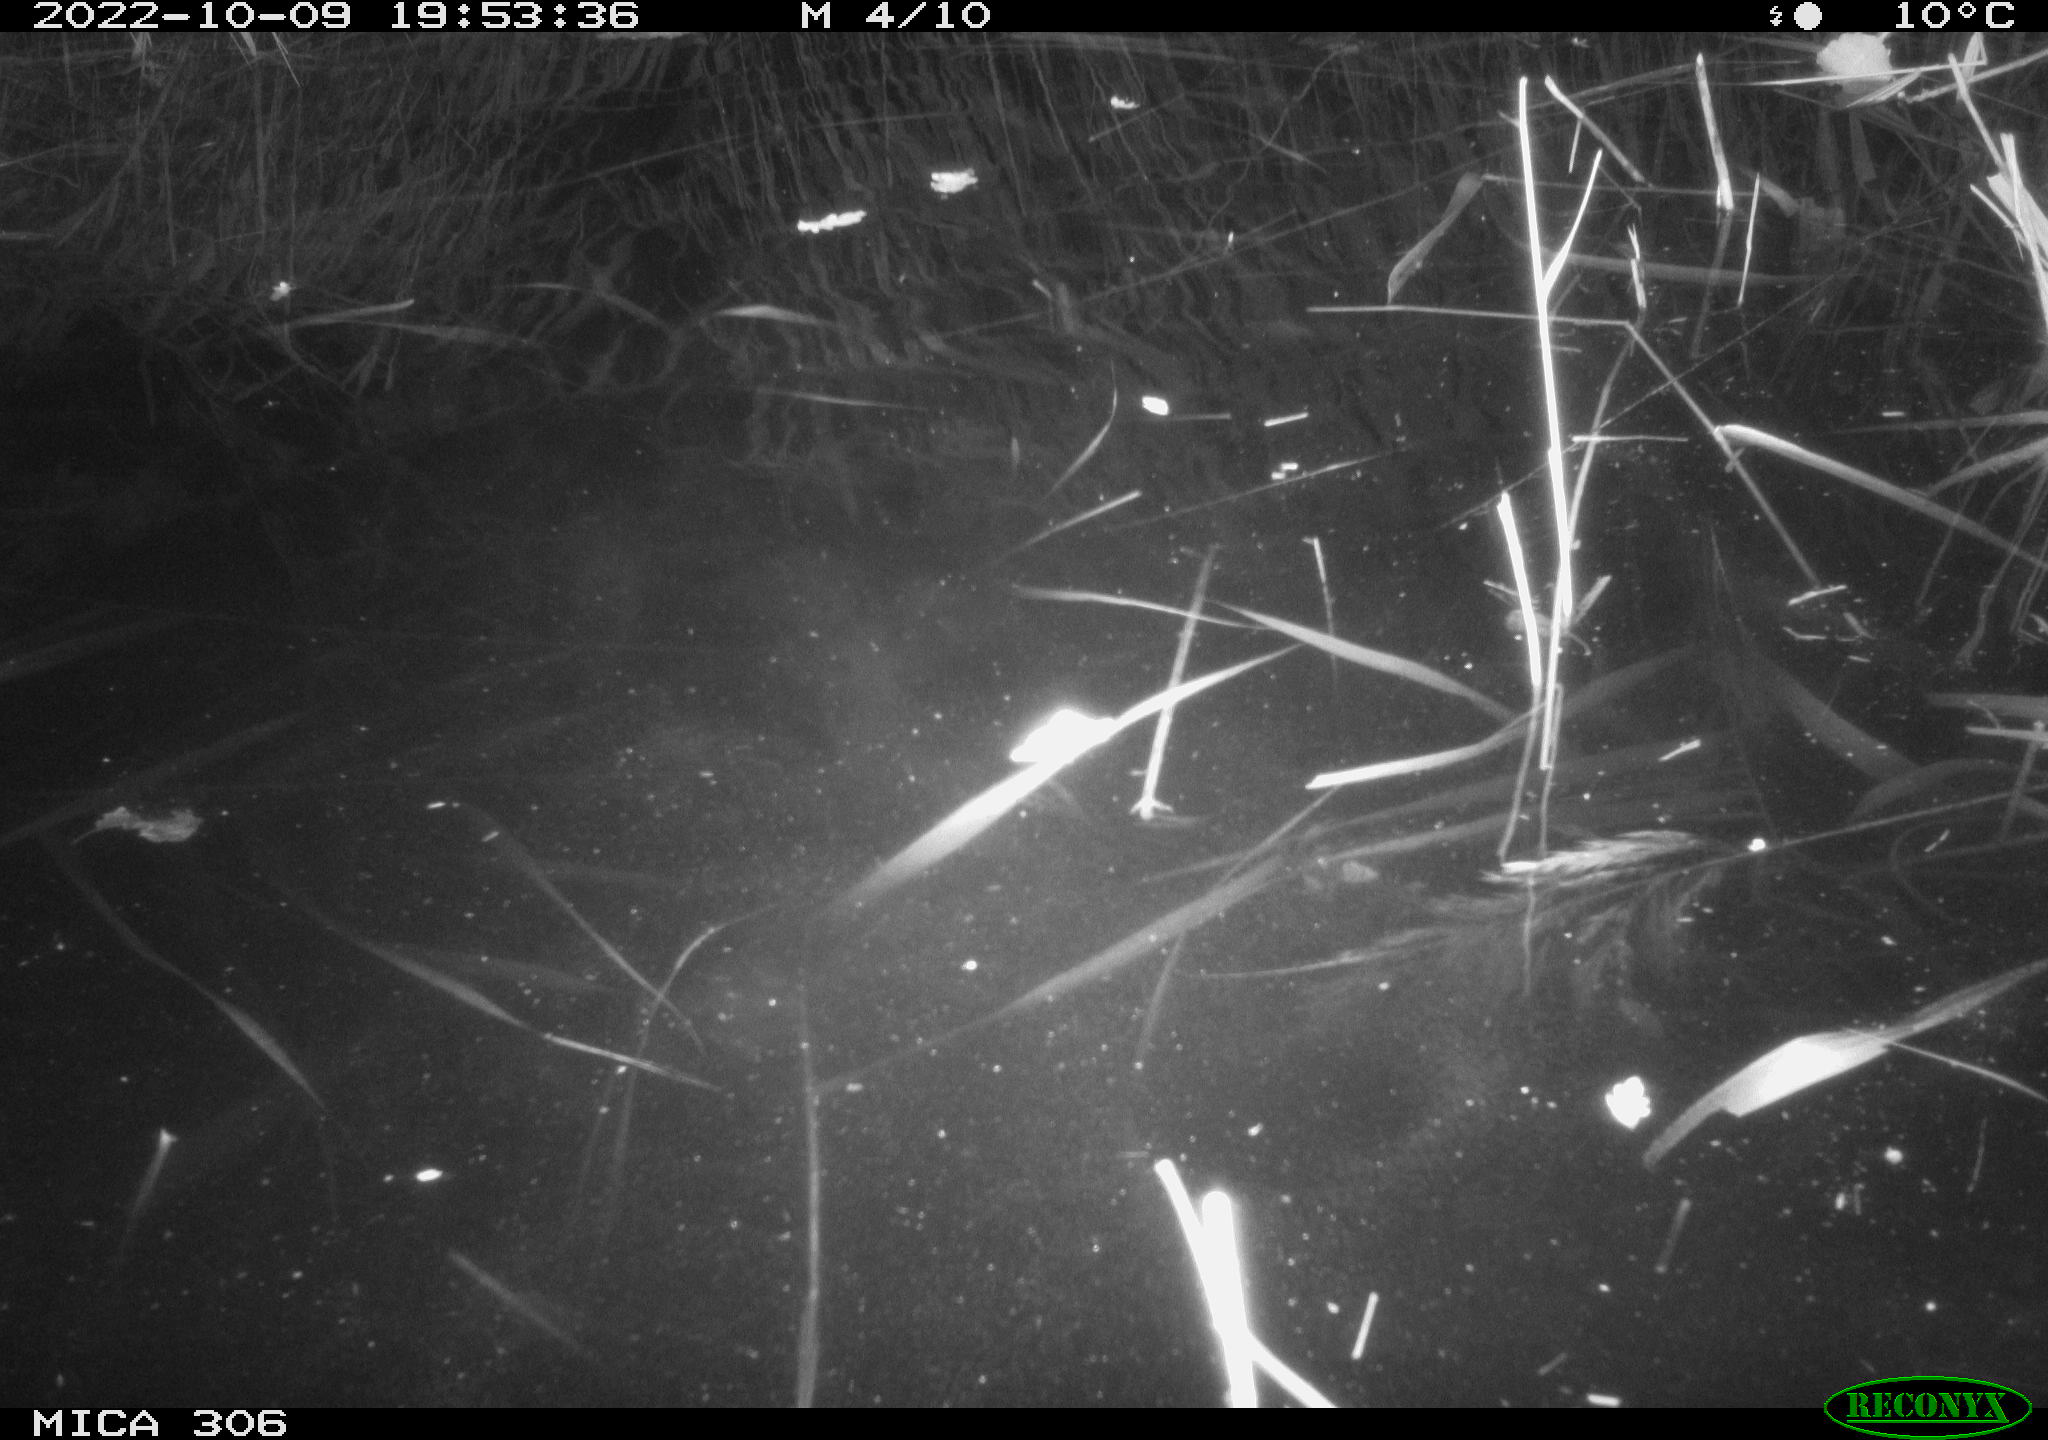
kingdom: Animalia
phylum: Chordata
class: Aves
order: Gruiformes
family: Rallidae
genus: Fulica
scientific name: Fulica atra
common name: Eurasian coot
